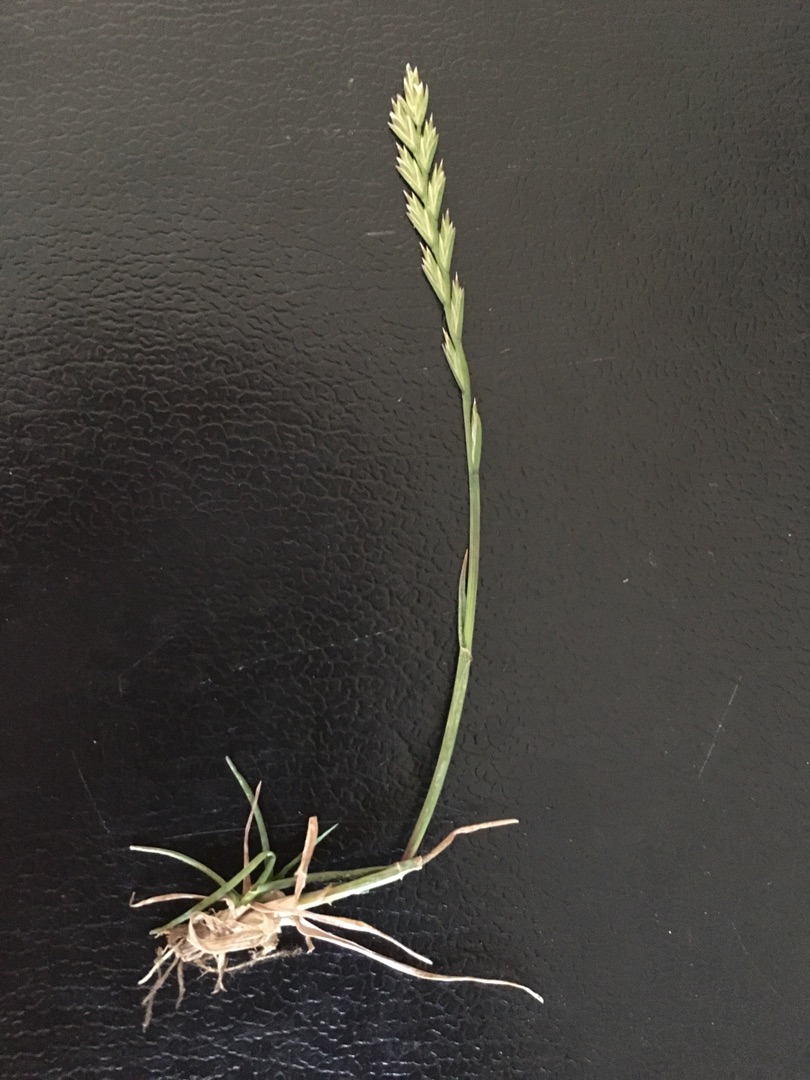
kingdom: Plantae
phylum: Tracheophyta
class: Liliopsida
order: Poales
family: Poaceae
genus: Lolium
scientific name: Lolium perenne
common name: Almindelig rajgræs
